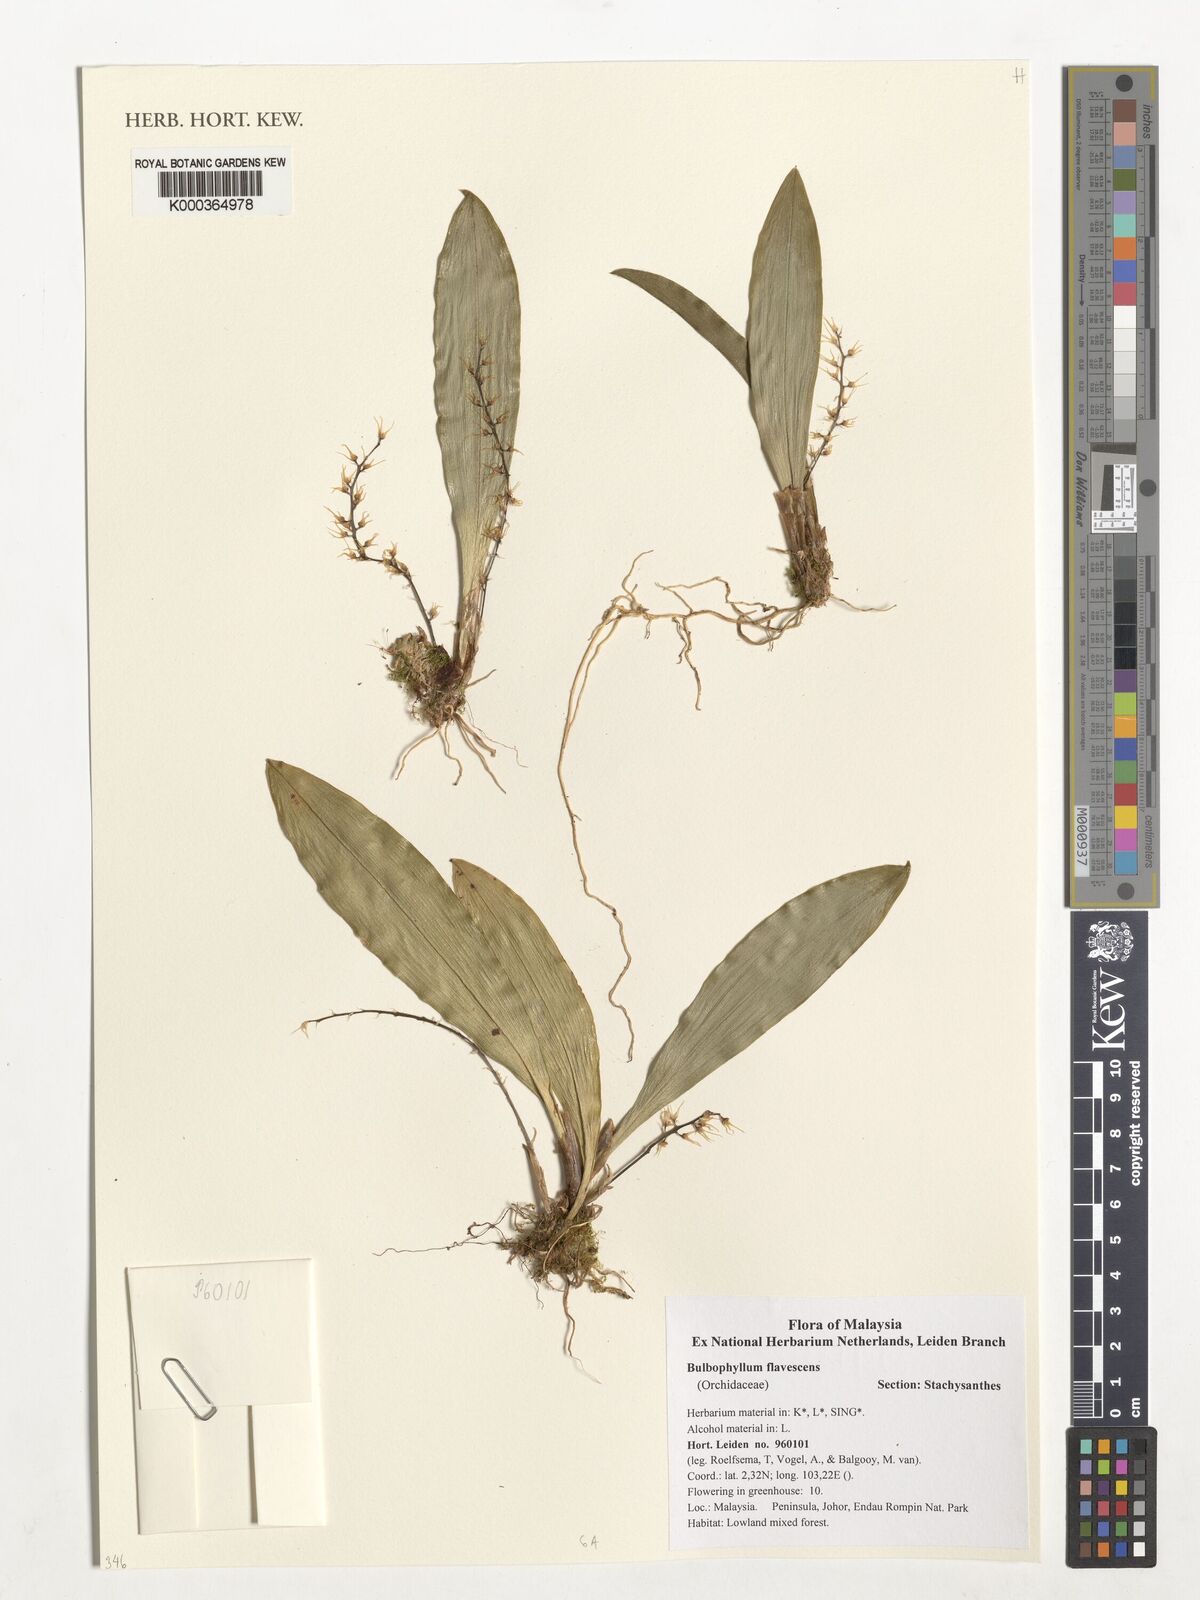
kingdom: Plantae
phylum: Tracheophyta
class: Liliopsida
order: Asparagales
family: Orchidaceae
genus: Bulbophyllum
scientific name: Bulbophyllum flavescens
